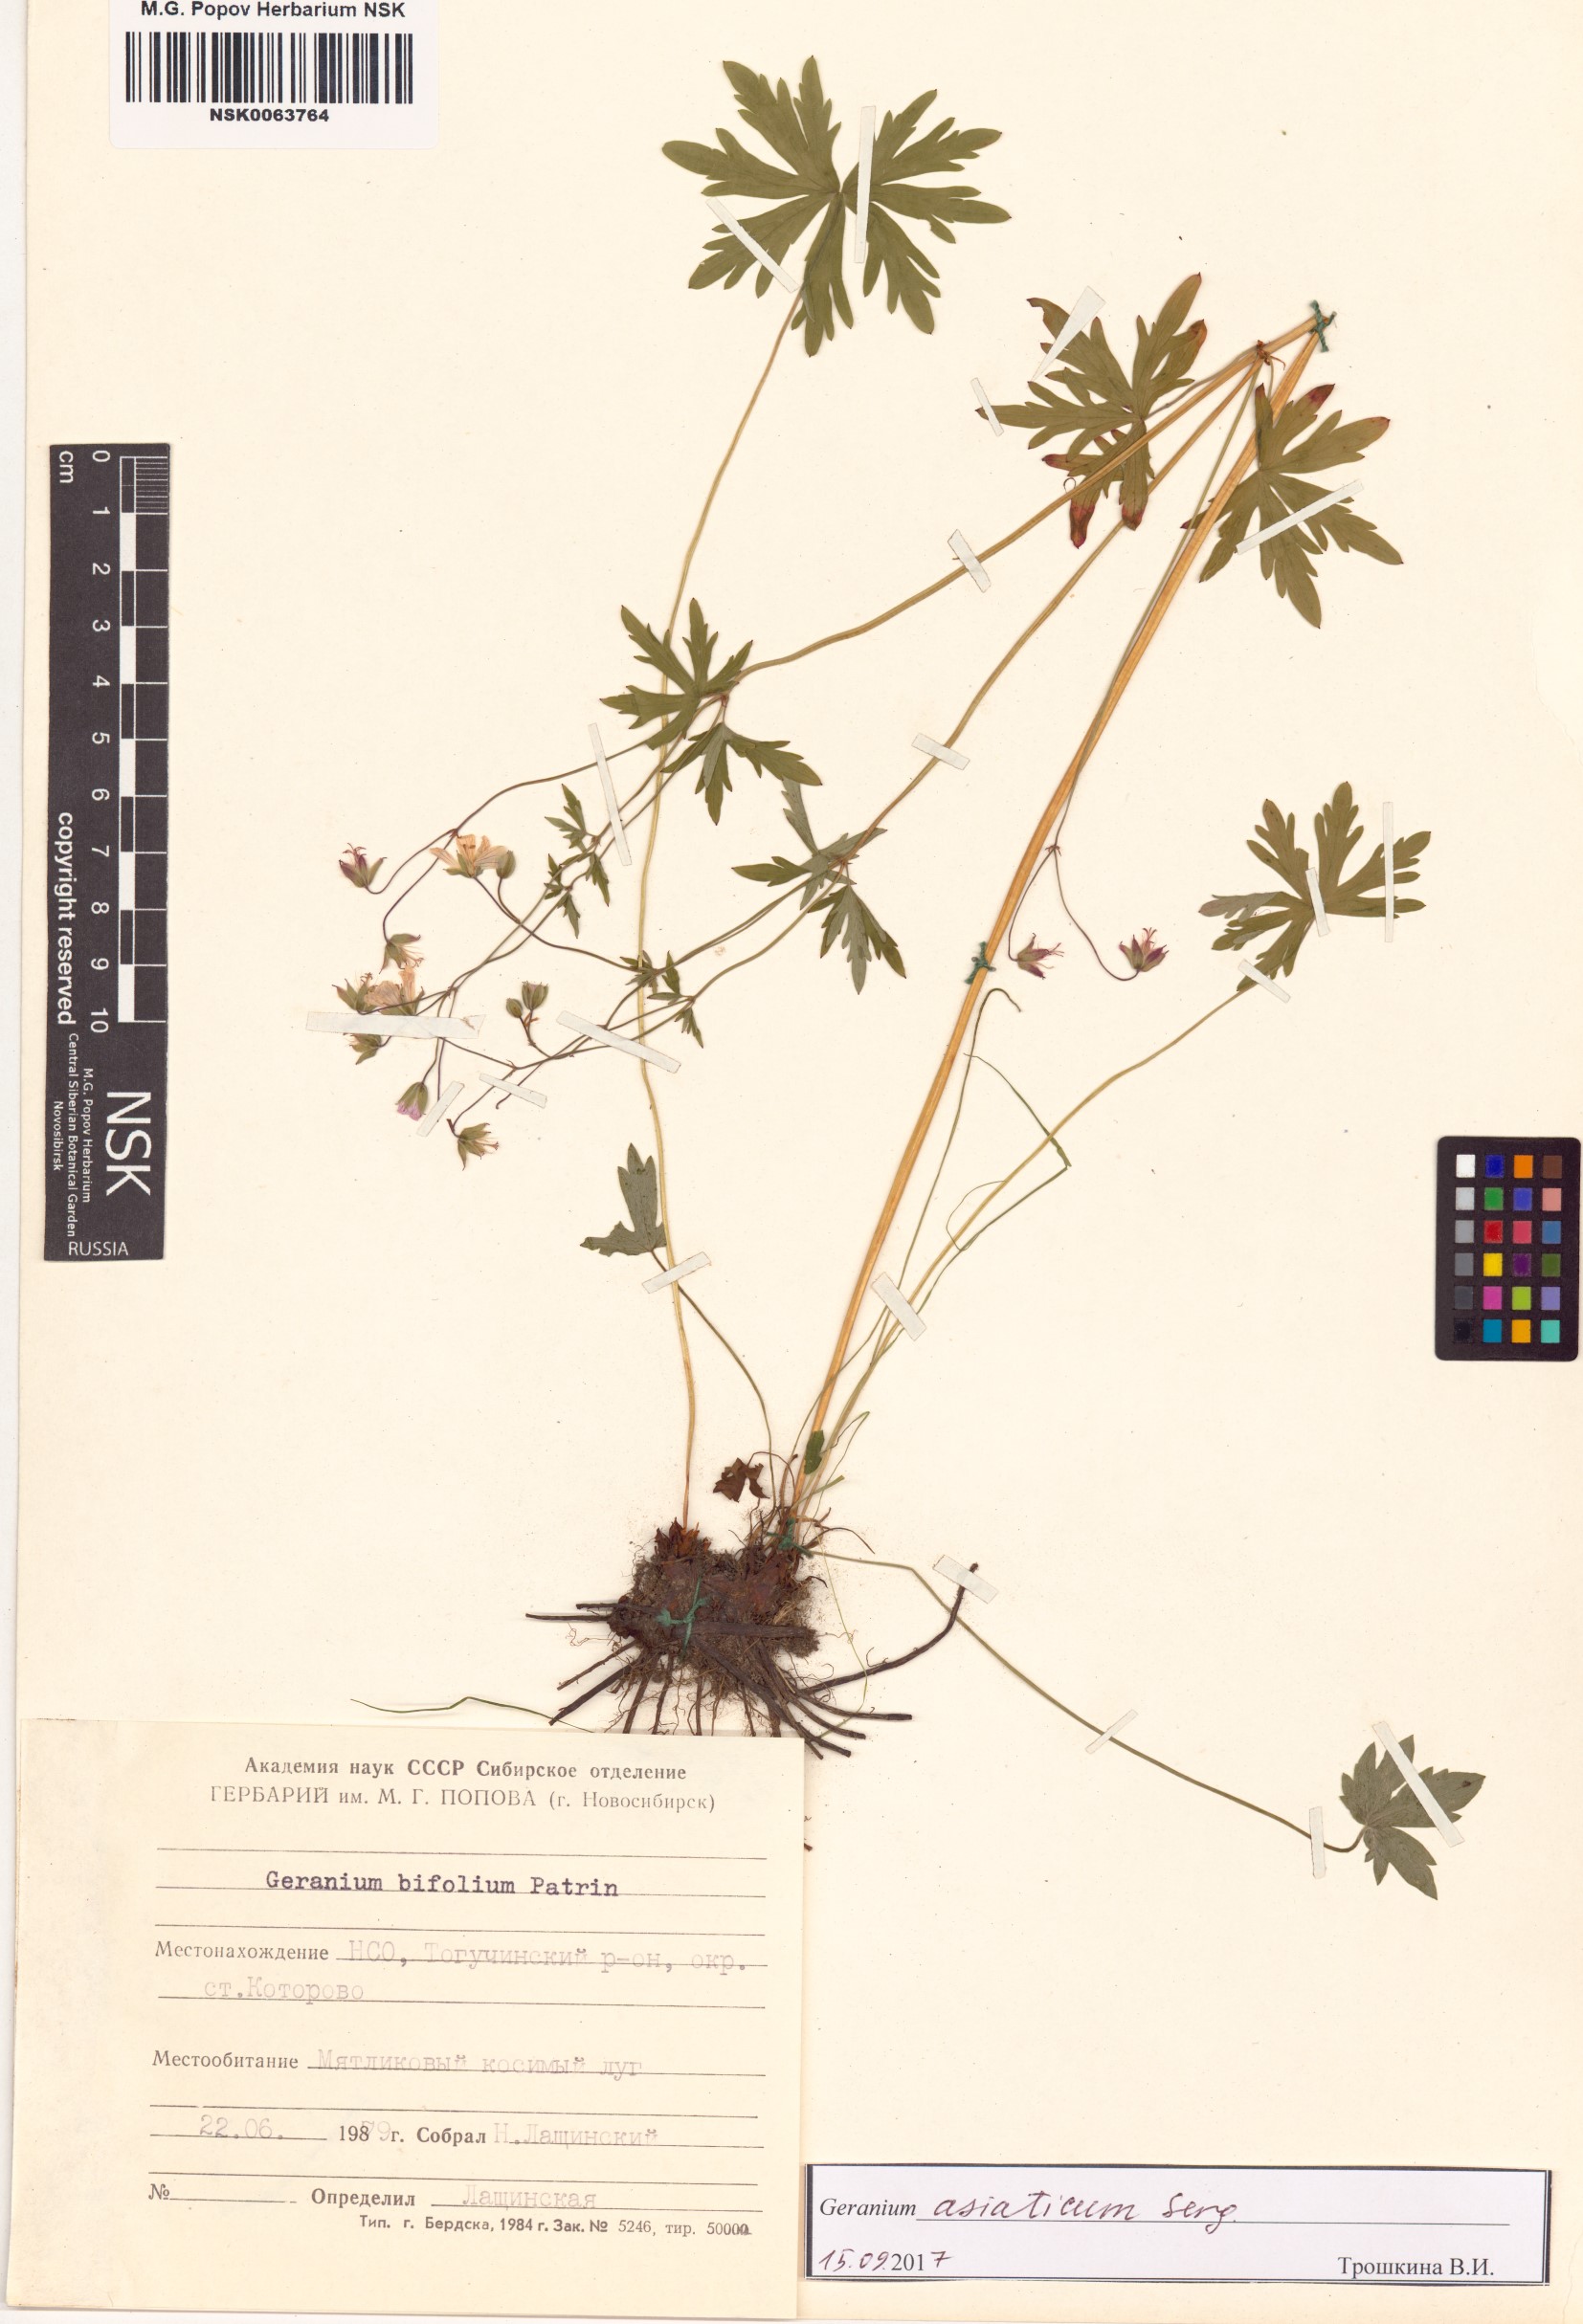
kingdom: Plantae
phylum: Tracheophyta
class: Magnoliopsida
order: Geraniales
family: Geraniaceae
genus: Geranium
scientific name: Geranium pseudosibiricum
